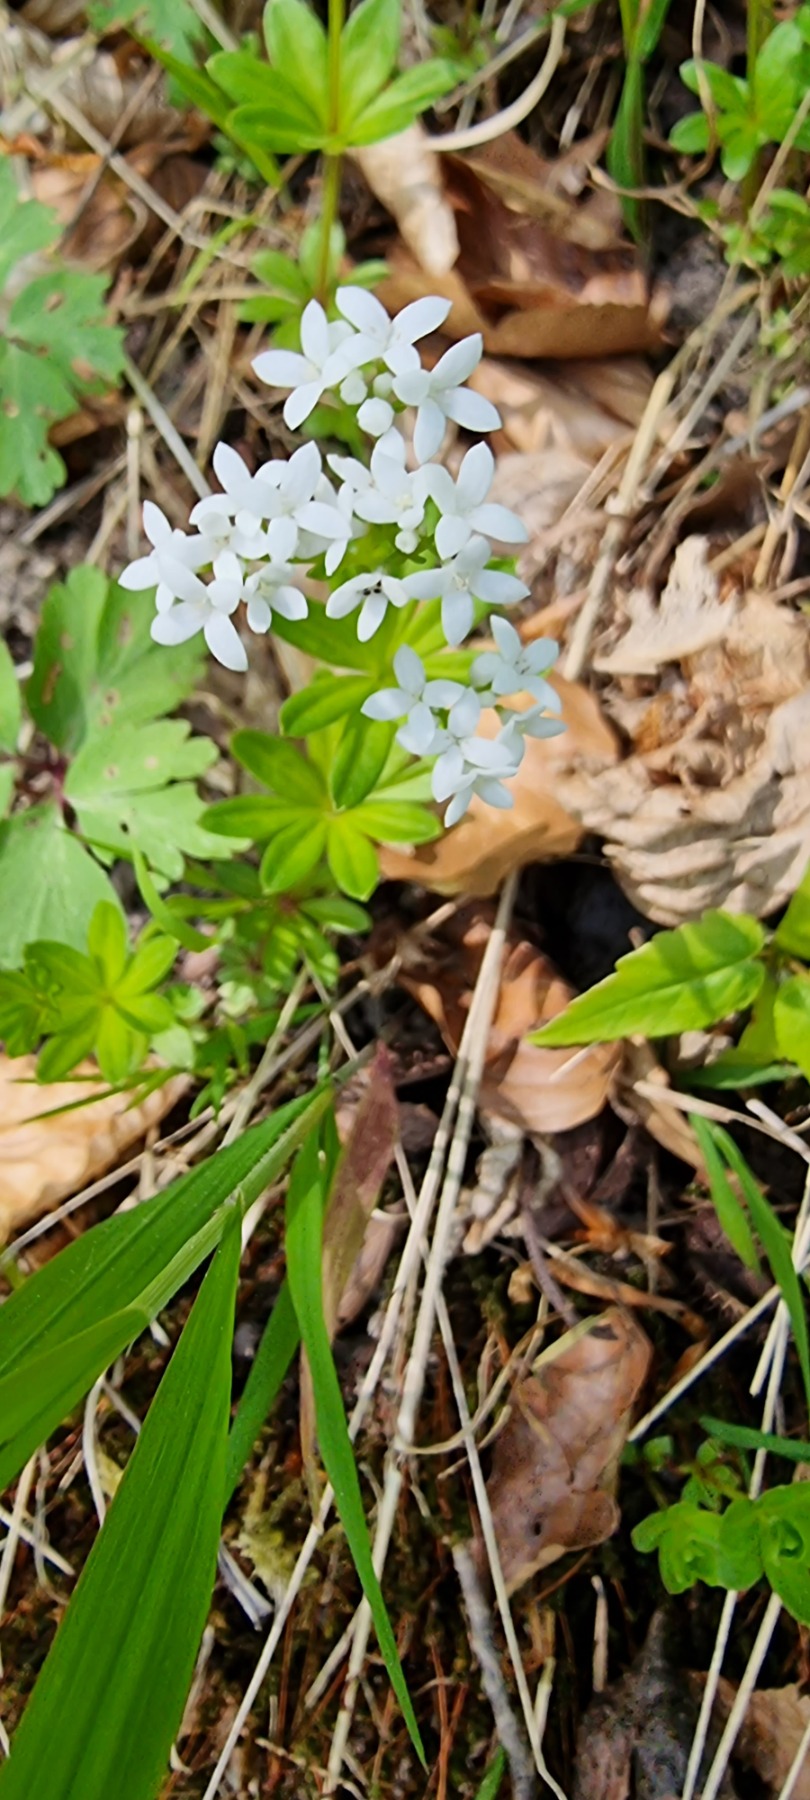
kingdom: Plantae
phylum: Tracheophyta
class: Magnoliopsida
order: Gentianales
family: Rubiaceae
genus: Galium
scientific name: Galium odoratum
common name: Skovmærke
